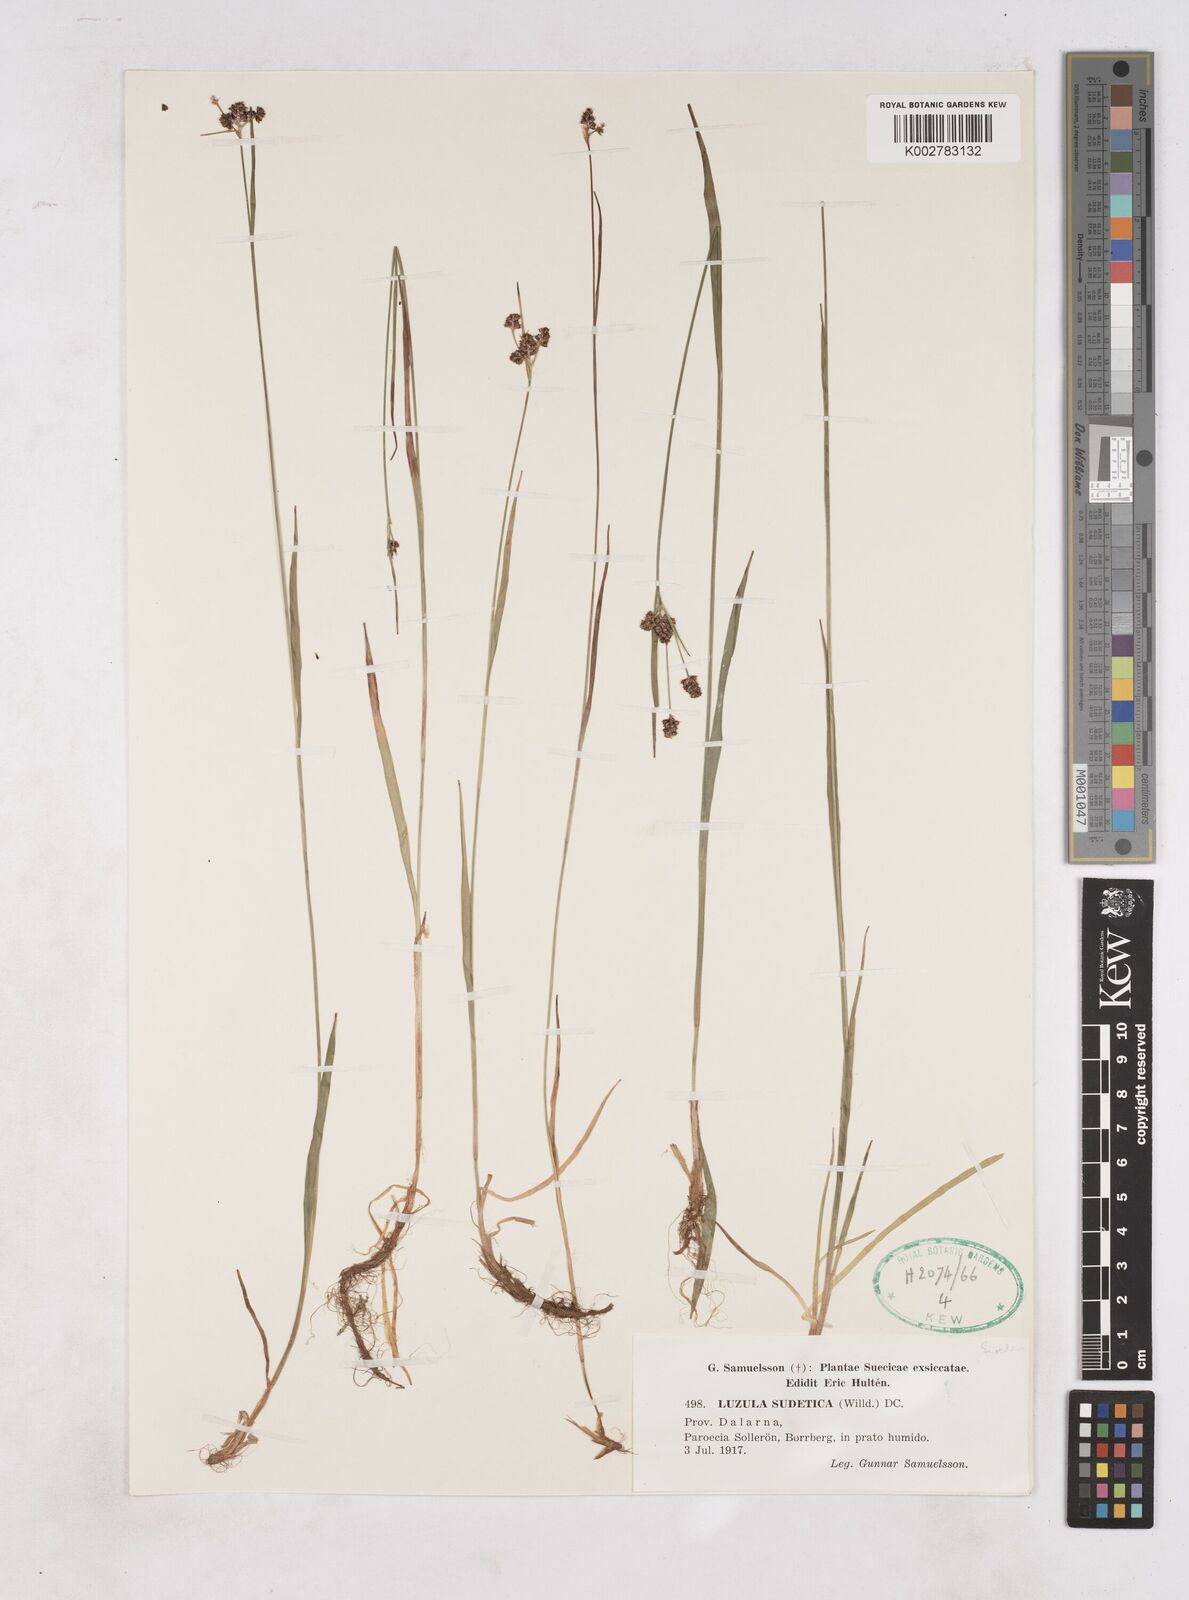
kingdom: Plantae
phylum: Tracheophyta
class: Liliopsida
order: Poales
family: Juncaceae
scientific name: Juncaceae
